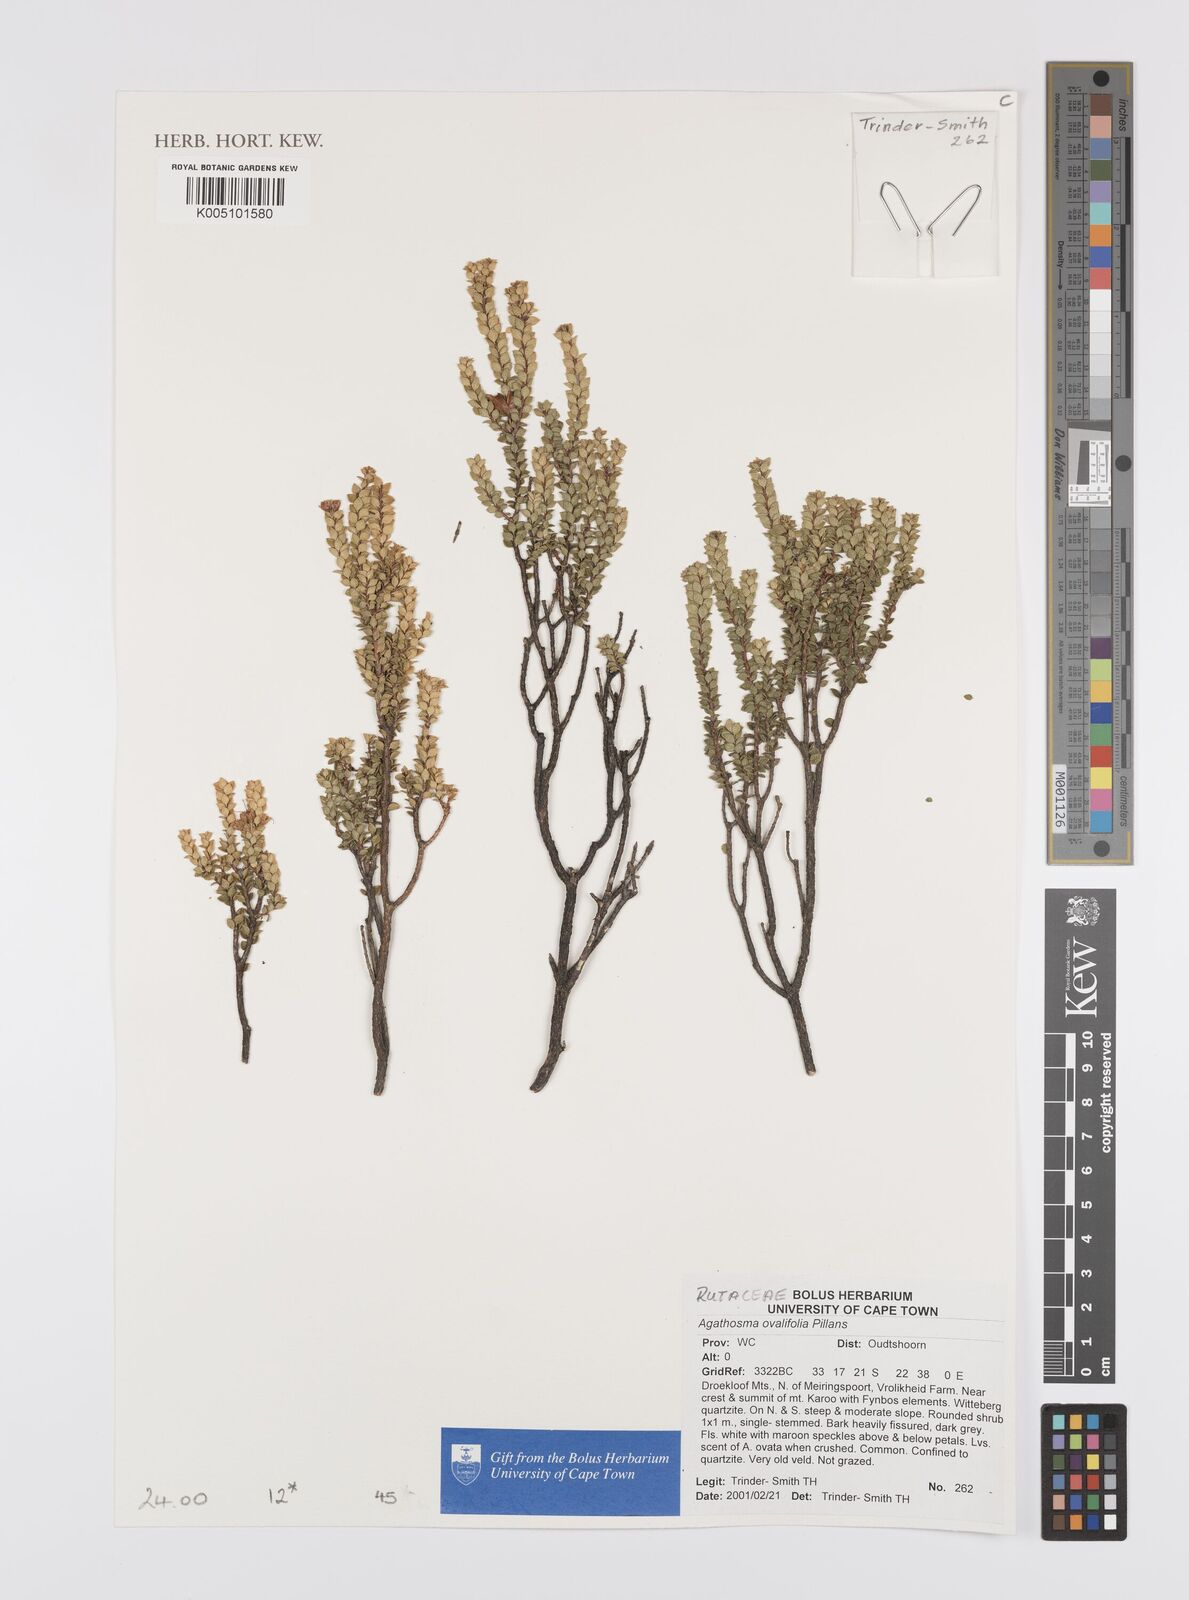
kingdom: Plantae
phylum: Tracheophyta
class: Magnoliopsida
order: Sapindales
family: Rutaceae
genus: Agathosma
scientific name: Agathosma ovalifolia
